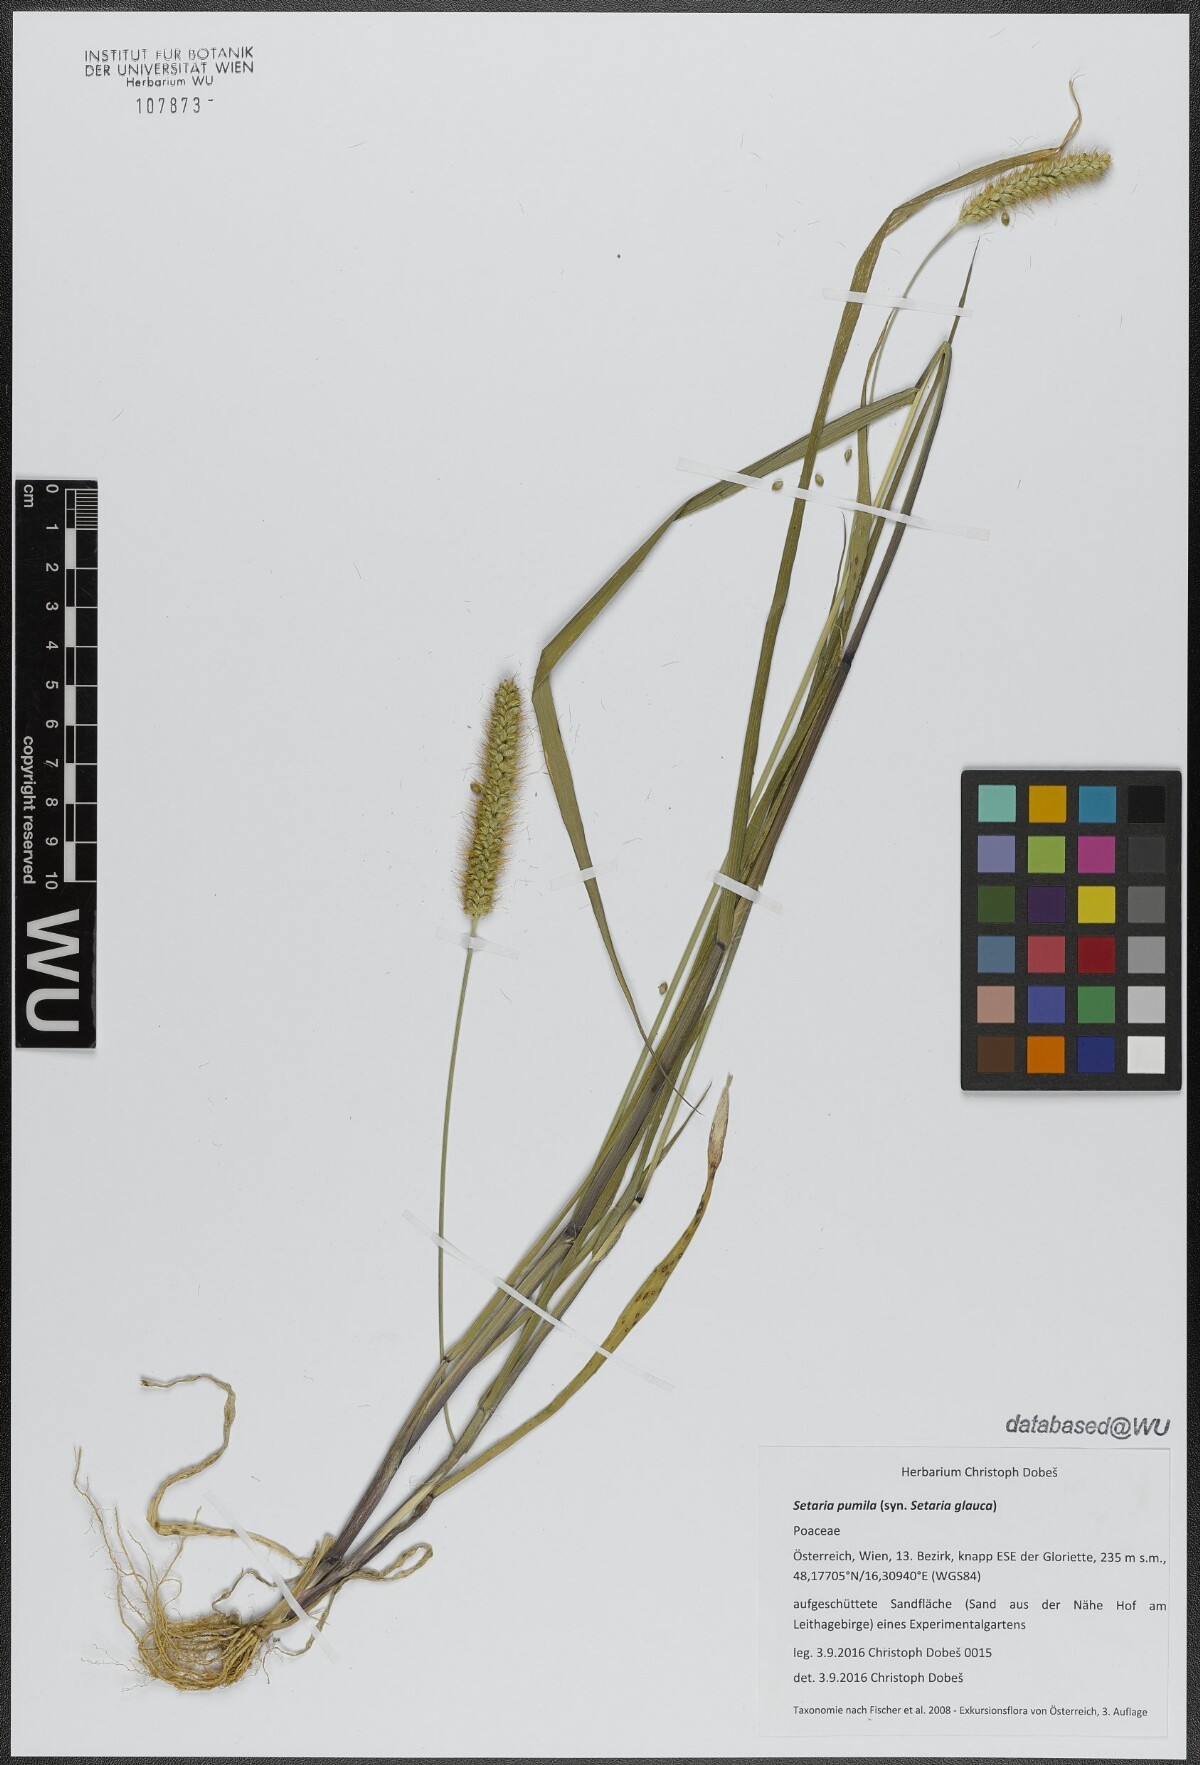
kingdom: Plantae
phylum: Tracheophyta
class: Liliopsida
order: Poales
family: Poaceae
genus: Setaria
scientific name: Setaria pumila
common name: Yellow bristle-grass
